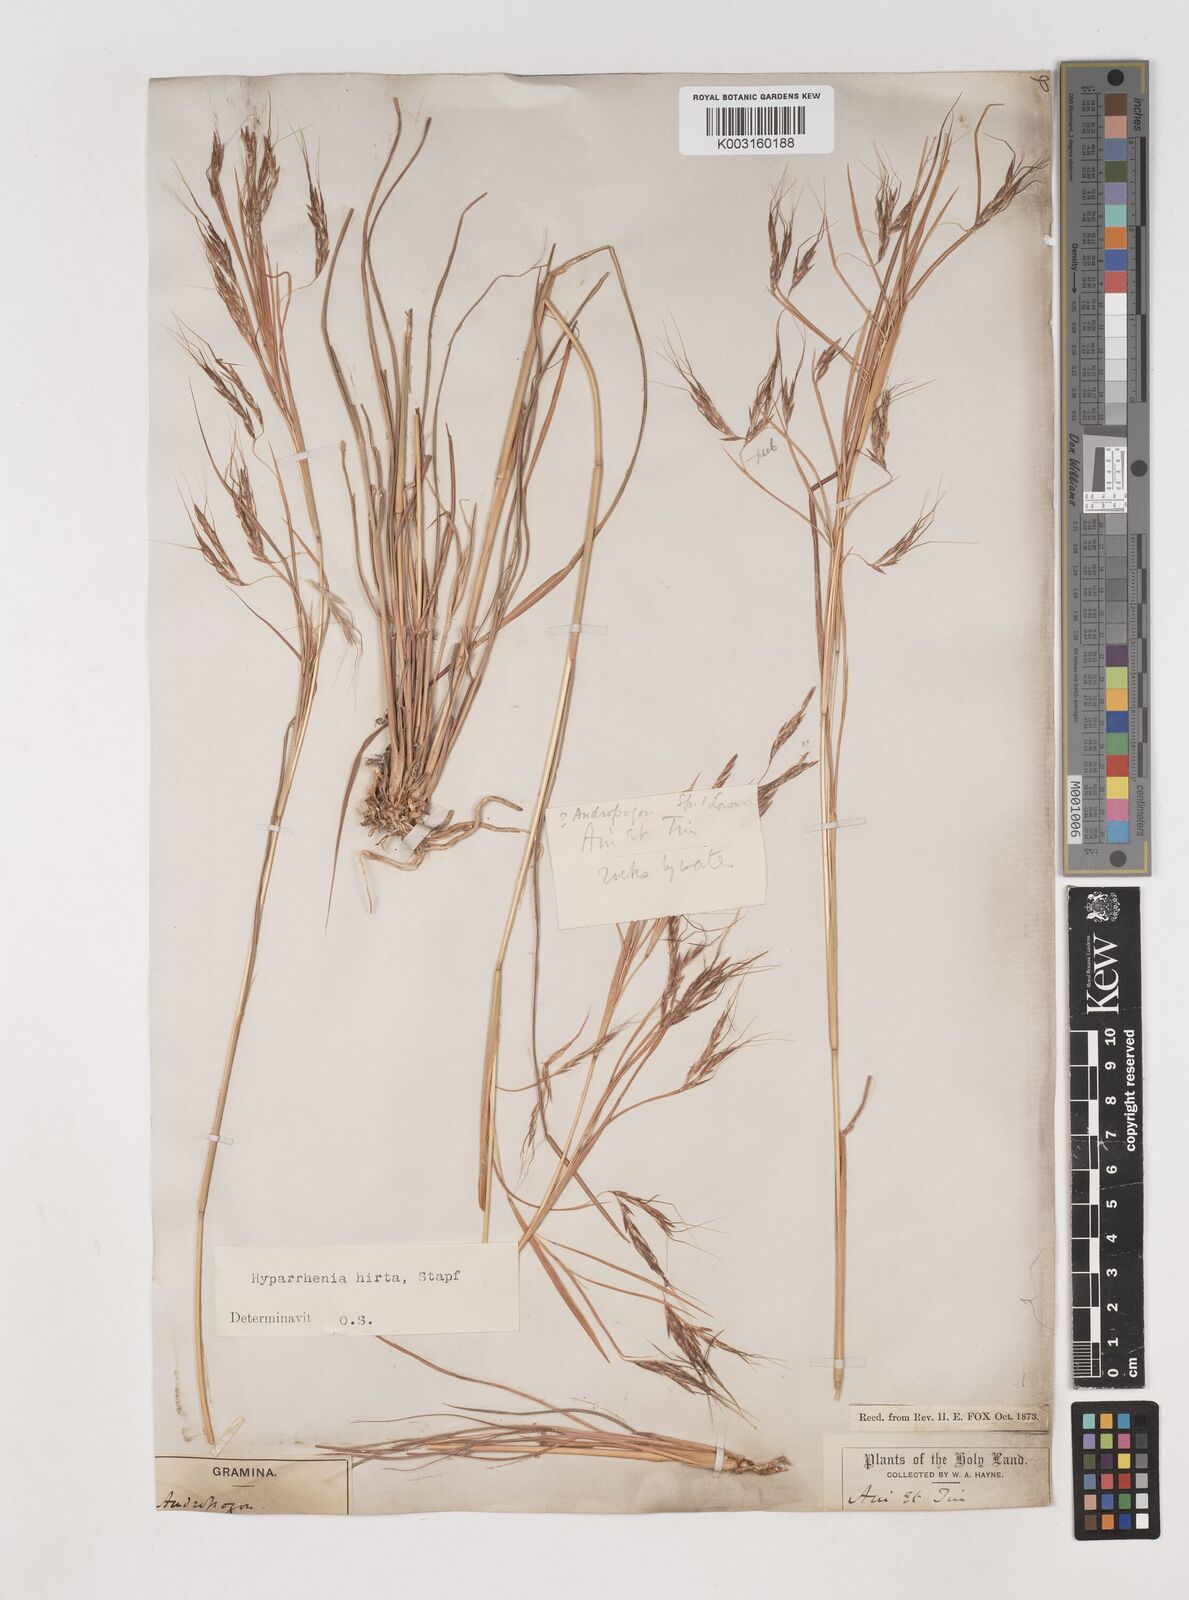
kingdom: Plantae
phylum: Tracheophyta
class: Liliopsida
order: Poales
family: Poaceae
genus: Hyparrhenia
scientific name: Hyparrhenia hirta
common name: Thatching grass
